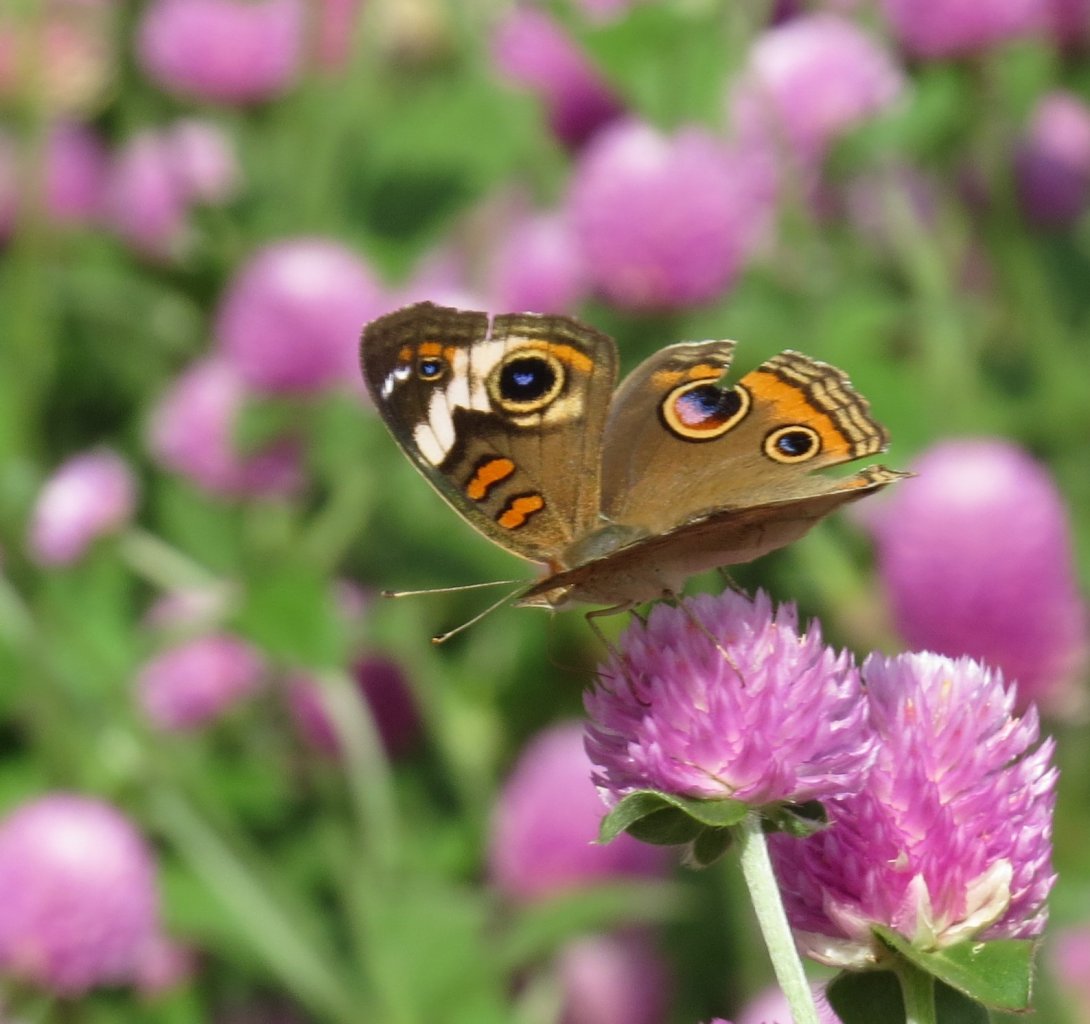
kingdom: Animalia
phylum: Arthropoda
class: Insecta
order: Lepidoptera
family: Nymphalidae
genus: Junonia
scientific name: Junonia coenia
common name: Common Buckeye
